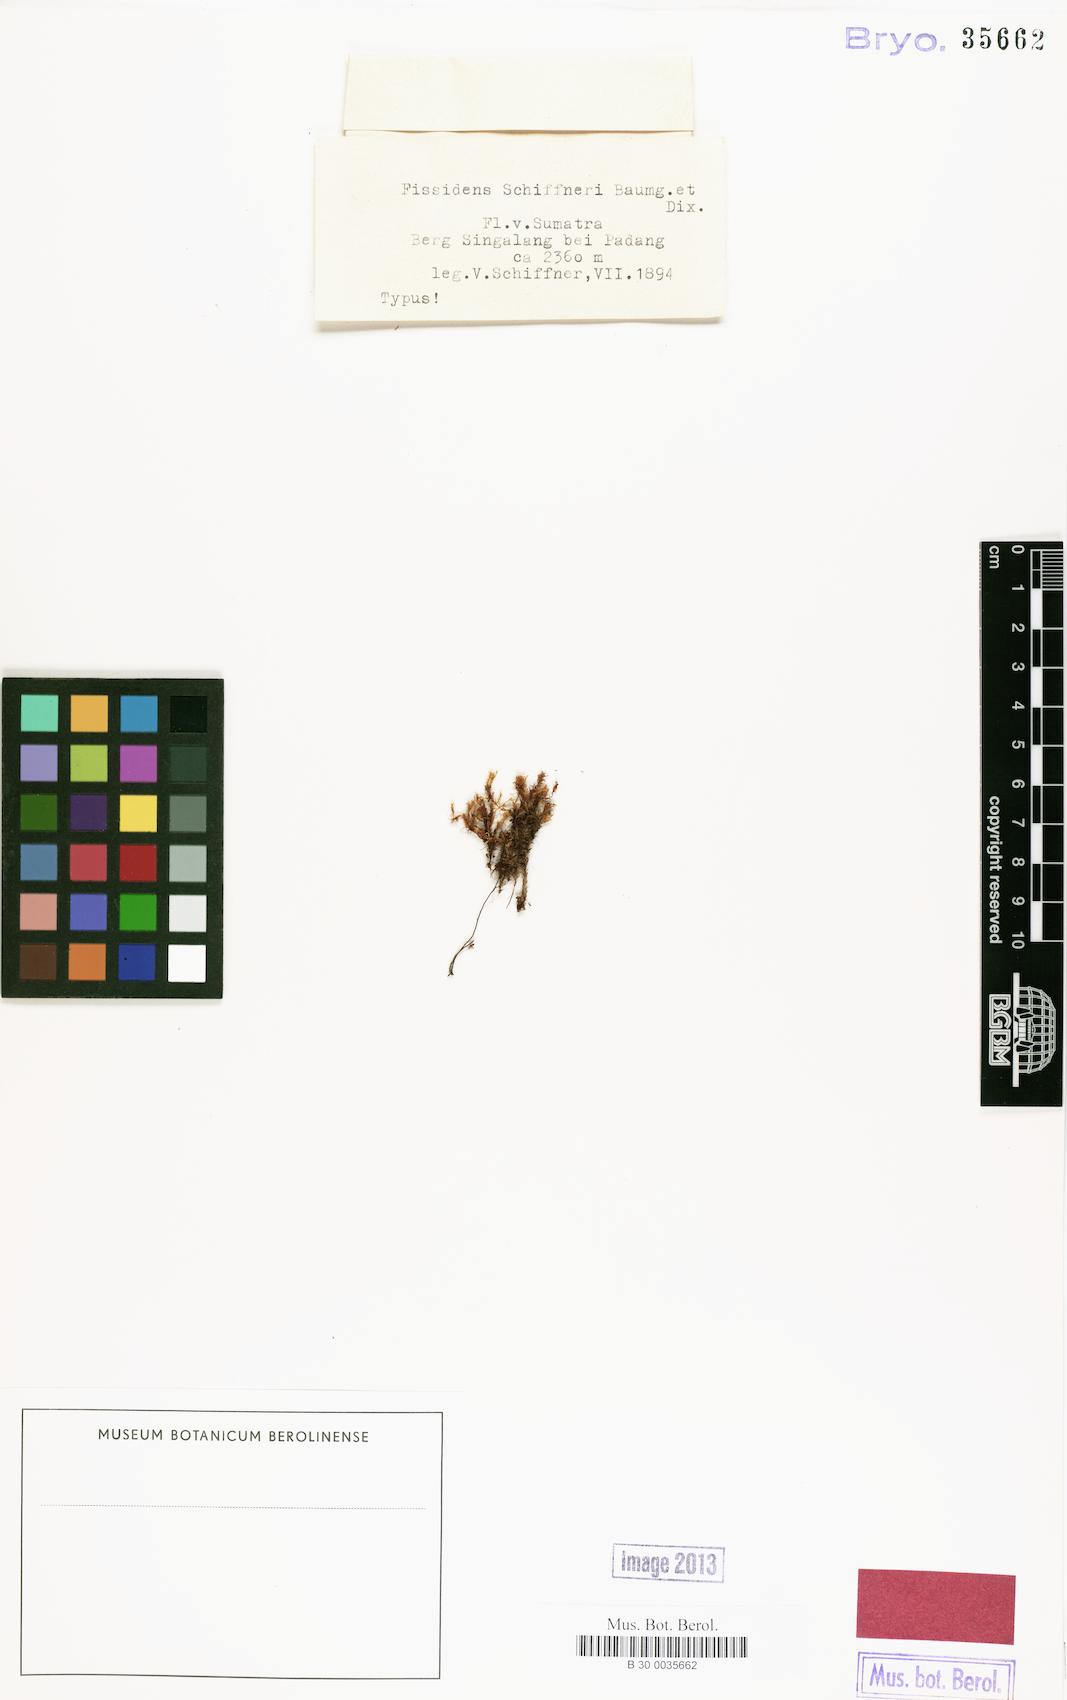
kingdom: Plantae
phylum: Bryophyta
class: Bryopsida
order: Dicranales
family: Fissidentaceae
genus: Fissidens
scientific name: Fissidens anomalus
